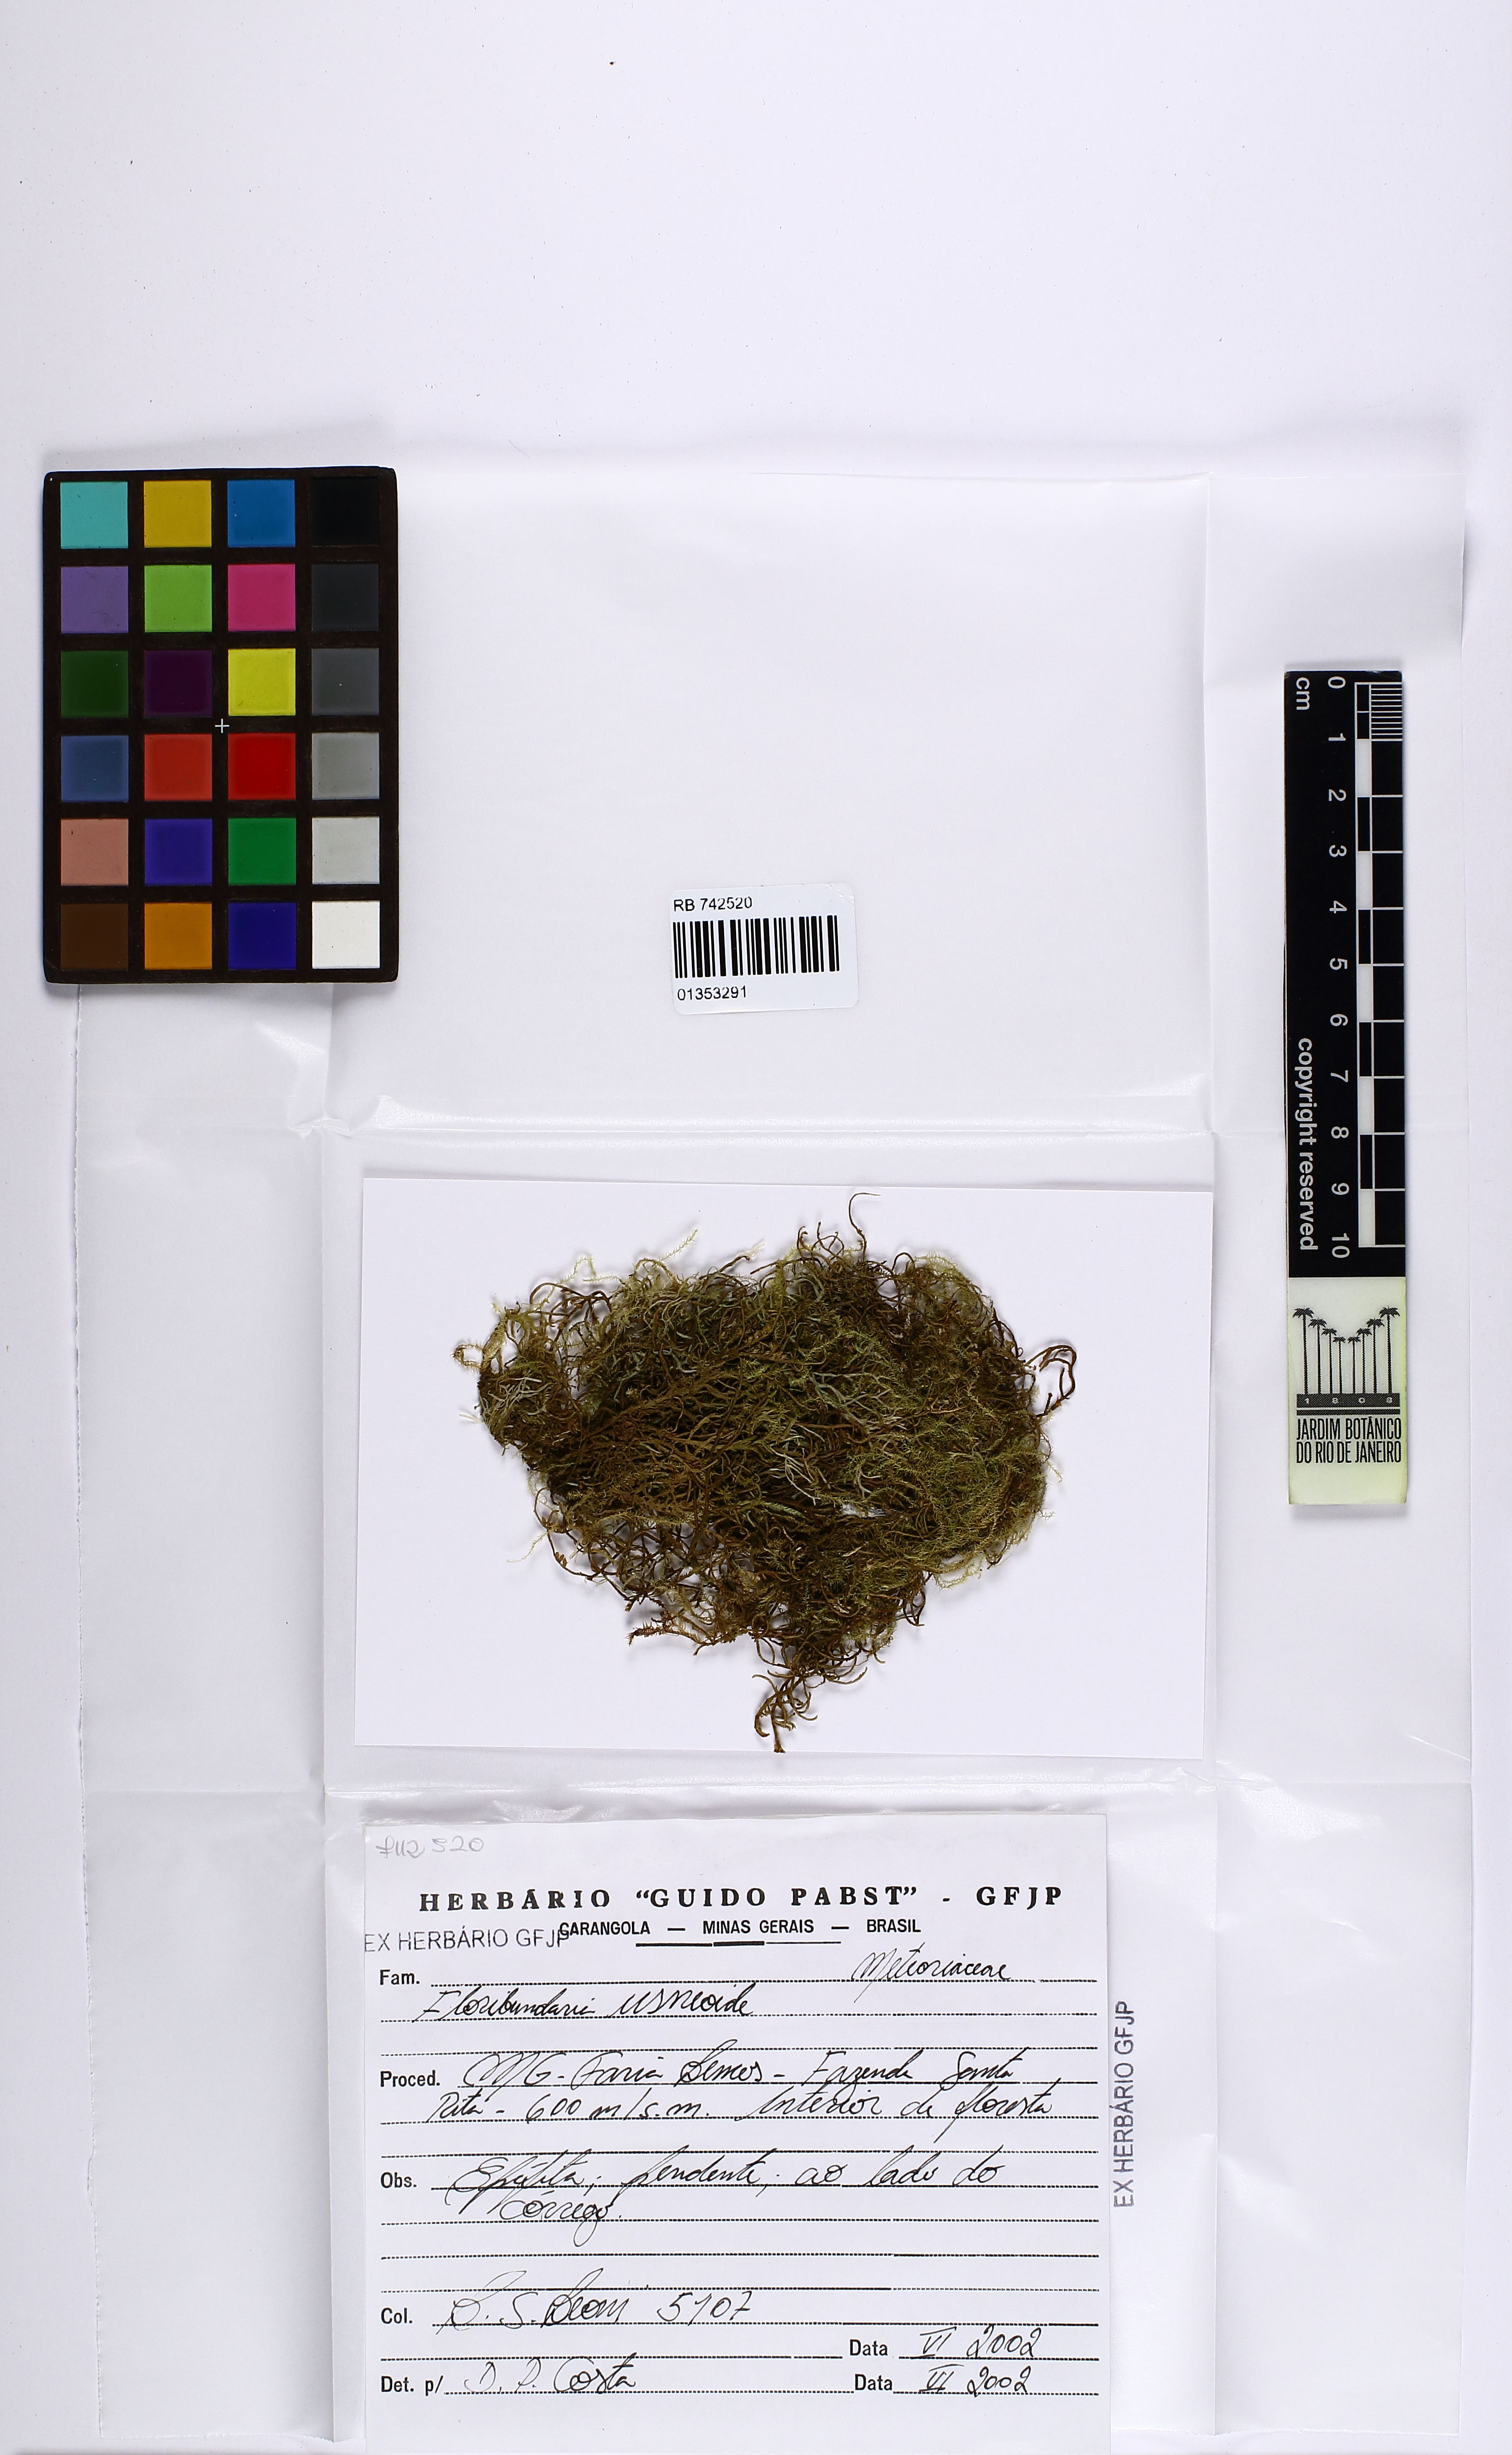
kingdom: Plantae
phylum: Bryophyta
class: Bryopsida
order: Hypnales
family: Meteoriaceae
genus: Floribundaria
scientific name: Floribundaria flaccida
